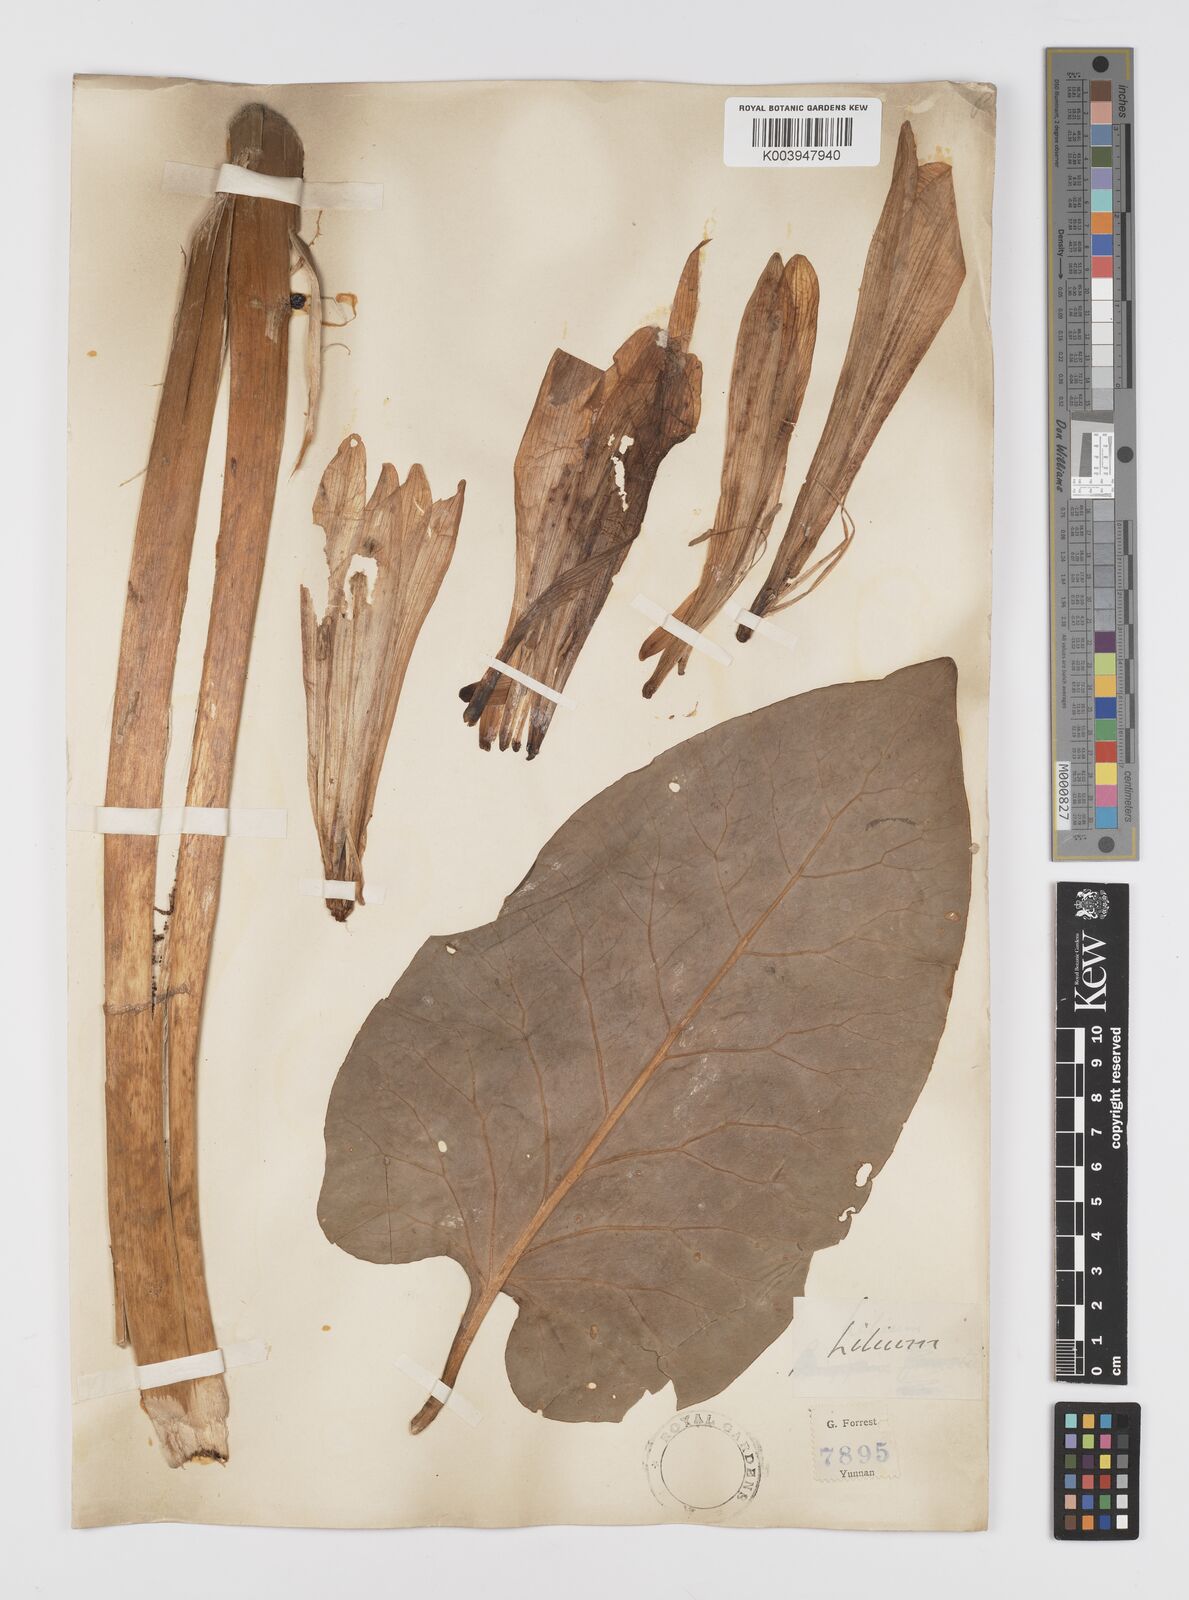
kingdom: Plantae
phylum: Tracheophyta
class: Liliopsida
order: Liliales
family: Liliaceae
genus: Cardiocrinum
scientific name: Cardiocrinum giganteum
